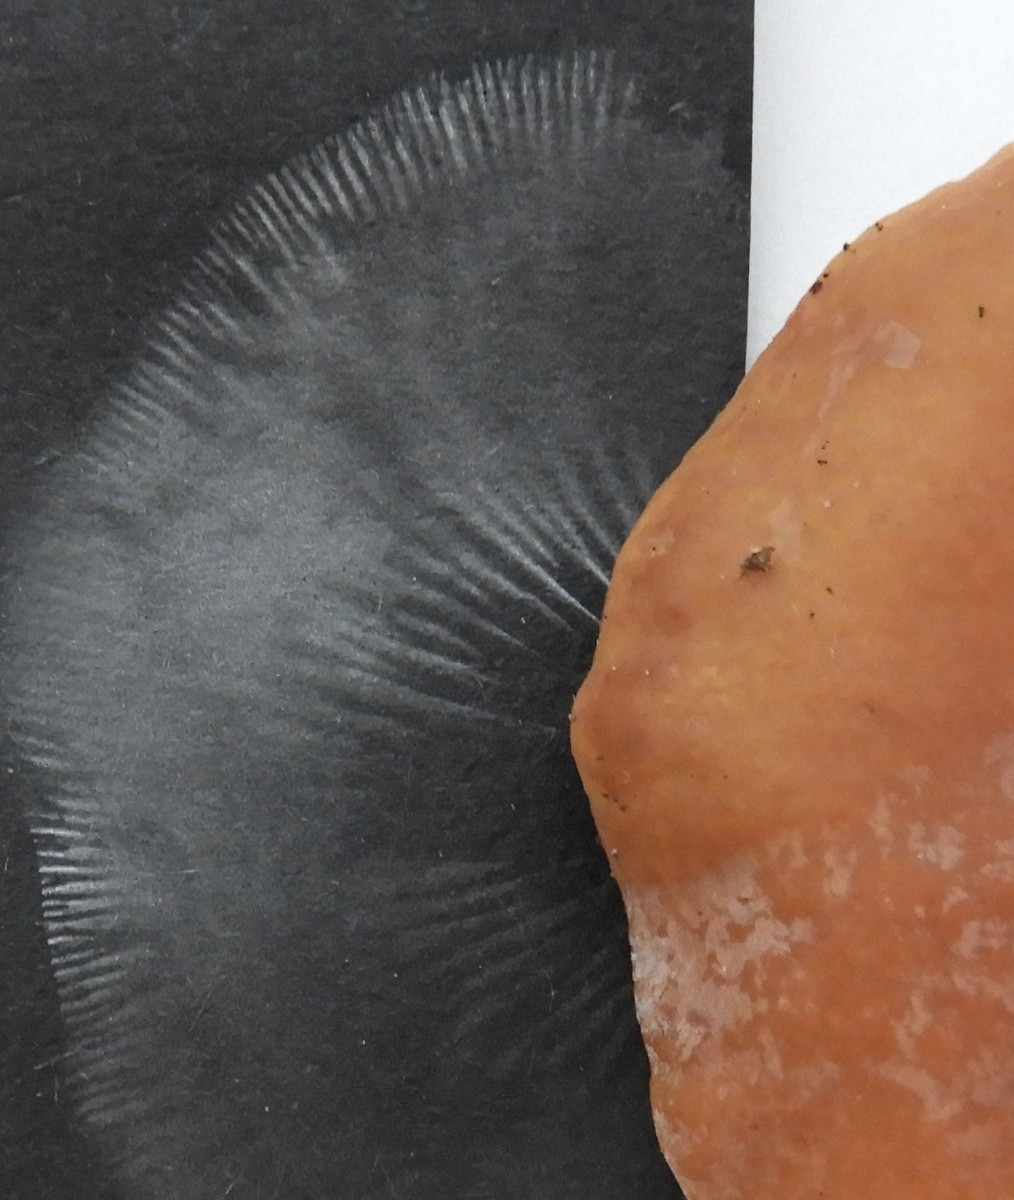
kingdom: Fungi
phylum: Basidiomycota
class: Agaricomycetes
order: Russulales
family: Russulaceae
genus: Lactarius
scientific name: Lactarius subdulcis
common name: sødlig mælkehat
